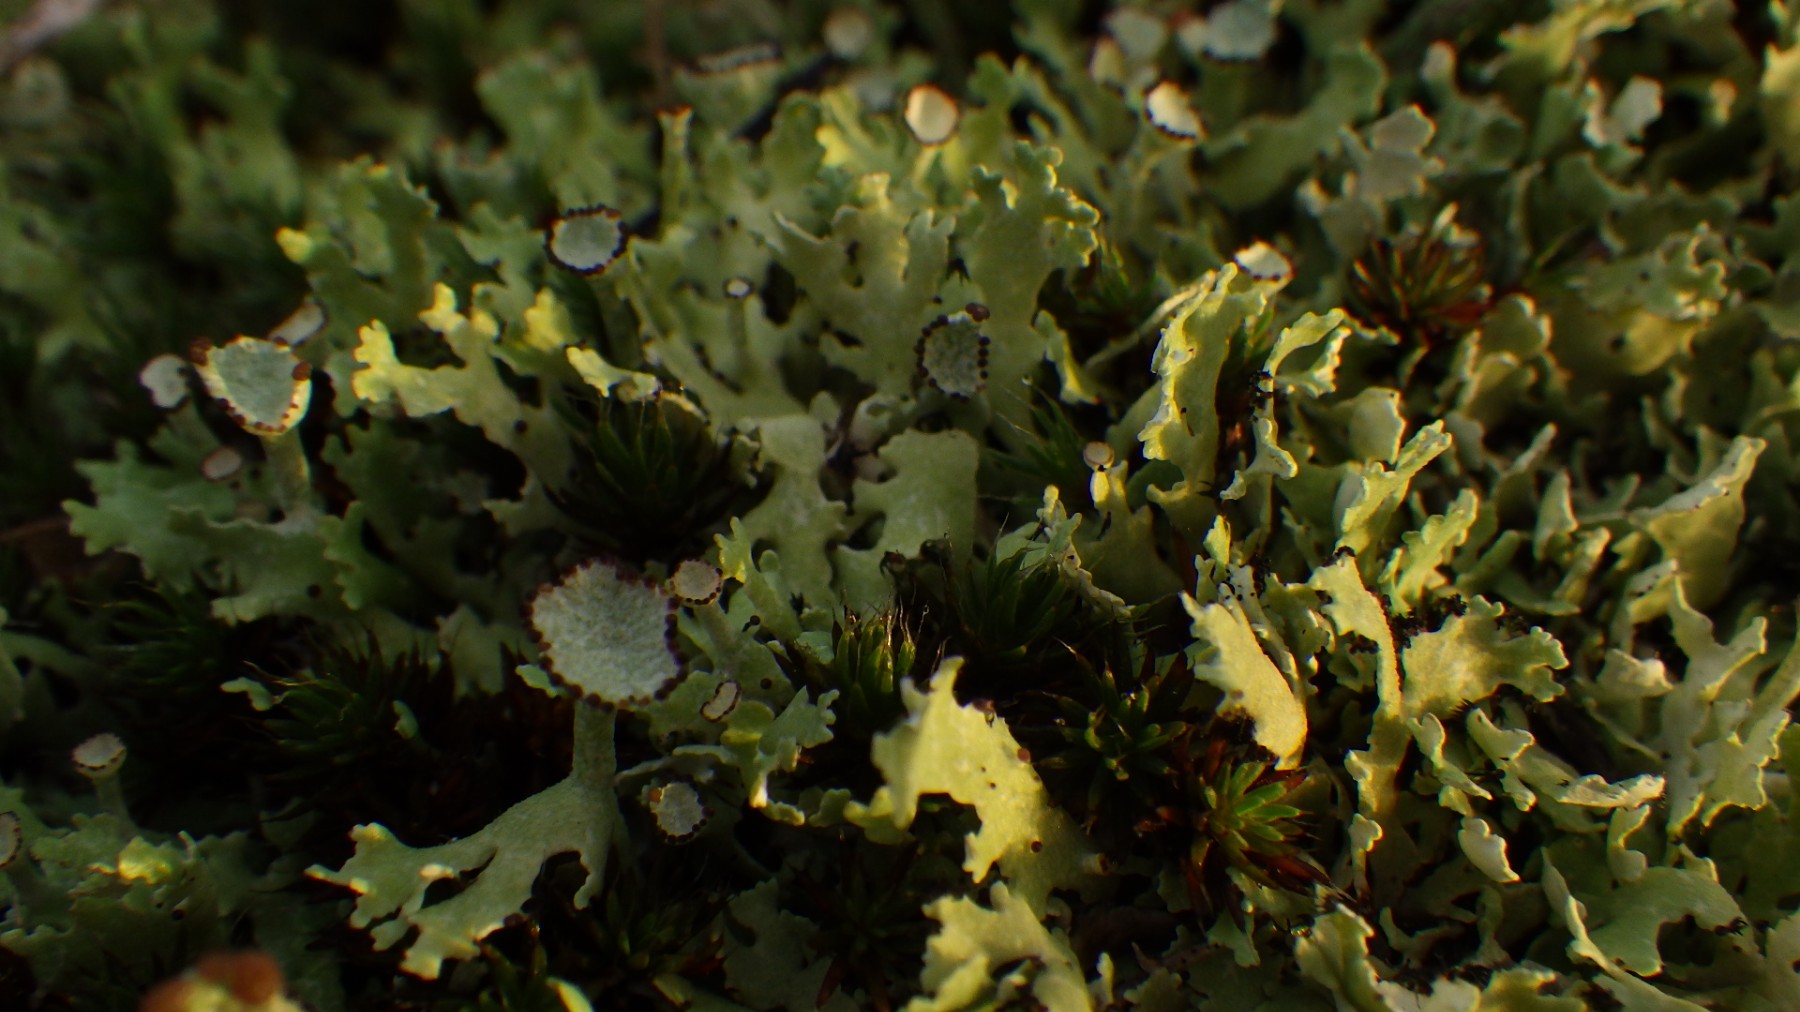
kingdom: Fungi
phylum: Ascomycota
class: Lecanoromycetes
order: Lecanorales
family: Cladoniaceae
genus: Cladonia
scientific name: Cladonia foliacea
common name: fliget bægerlav
